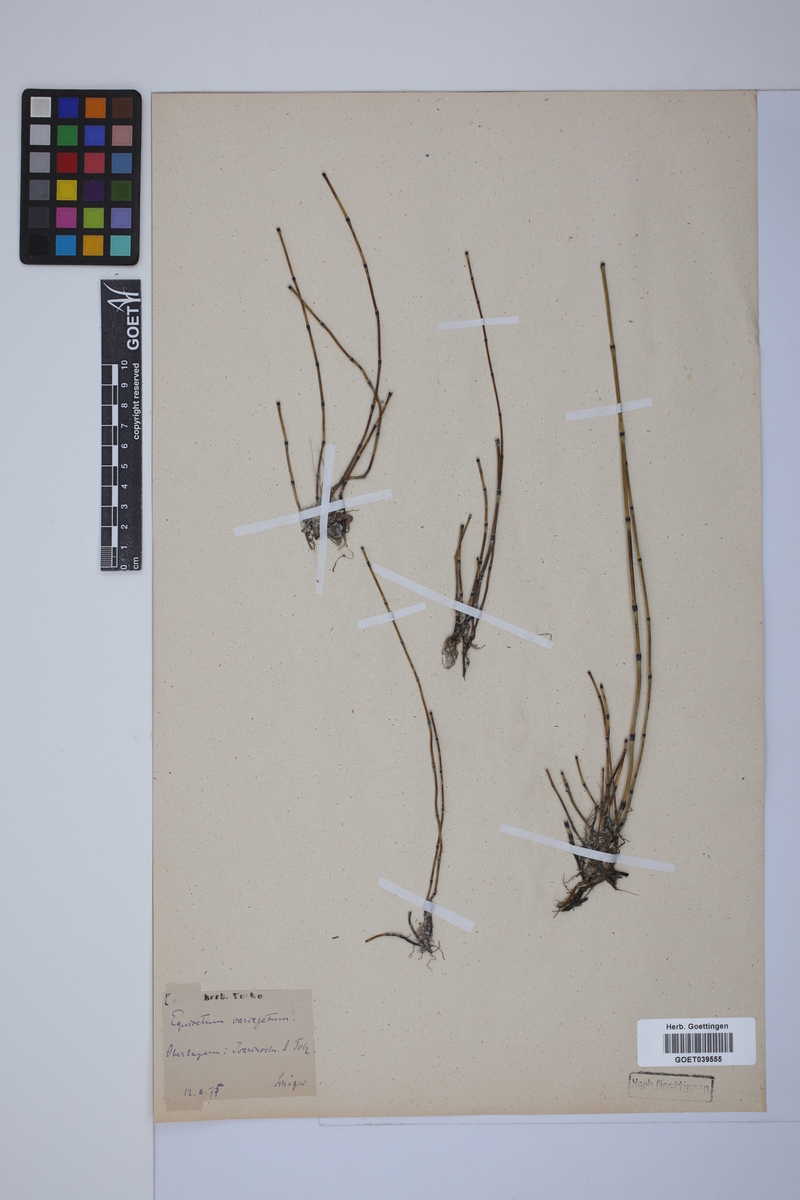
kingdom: Plantae
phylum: Tracheophyta
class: Polypodiopsida
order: Equisetales
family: Equisetaceae
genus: Equisetum
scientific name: Equisetum variegatum
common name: Variegated horsetail
